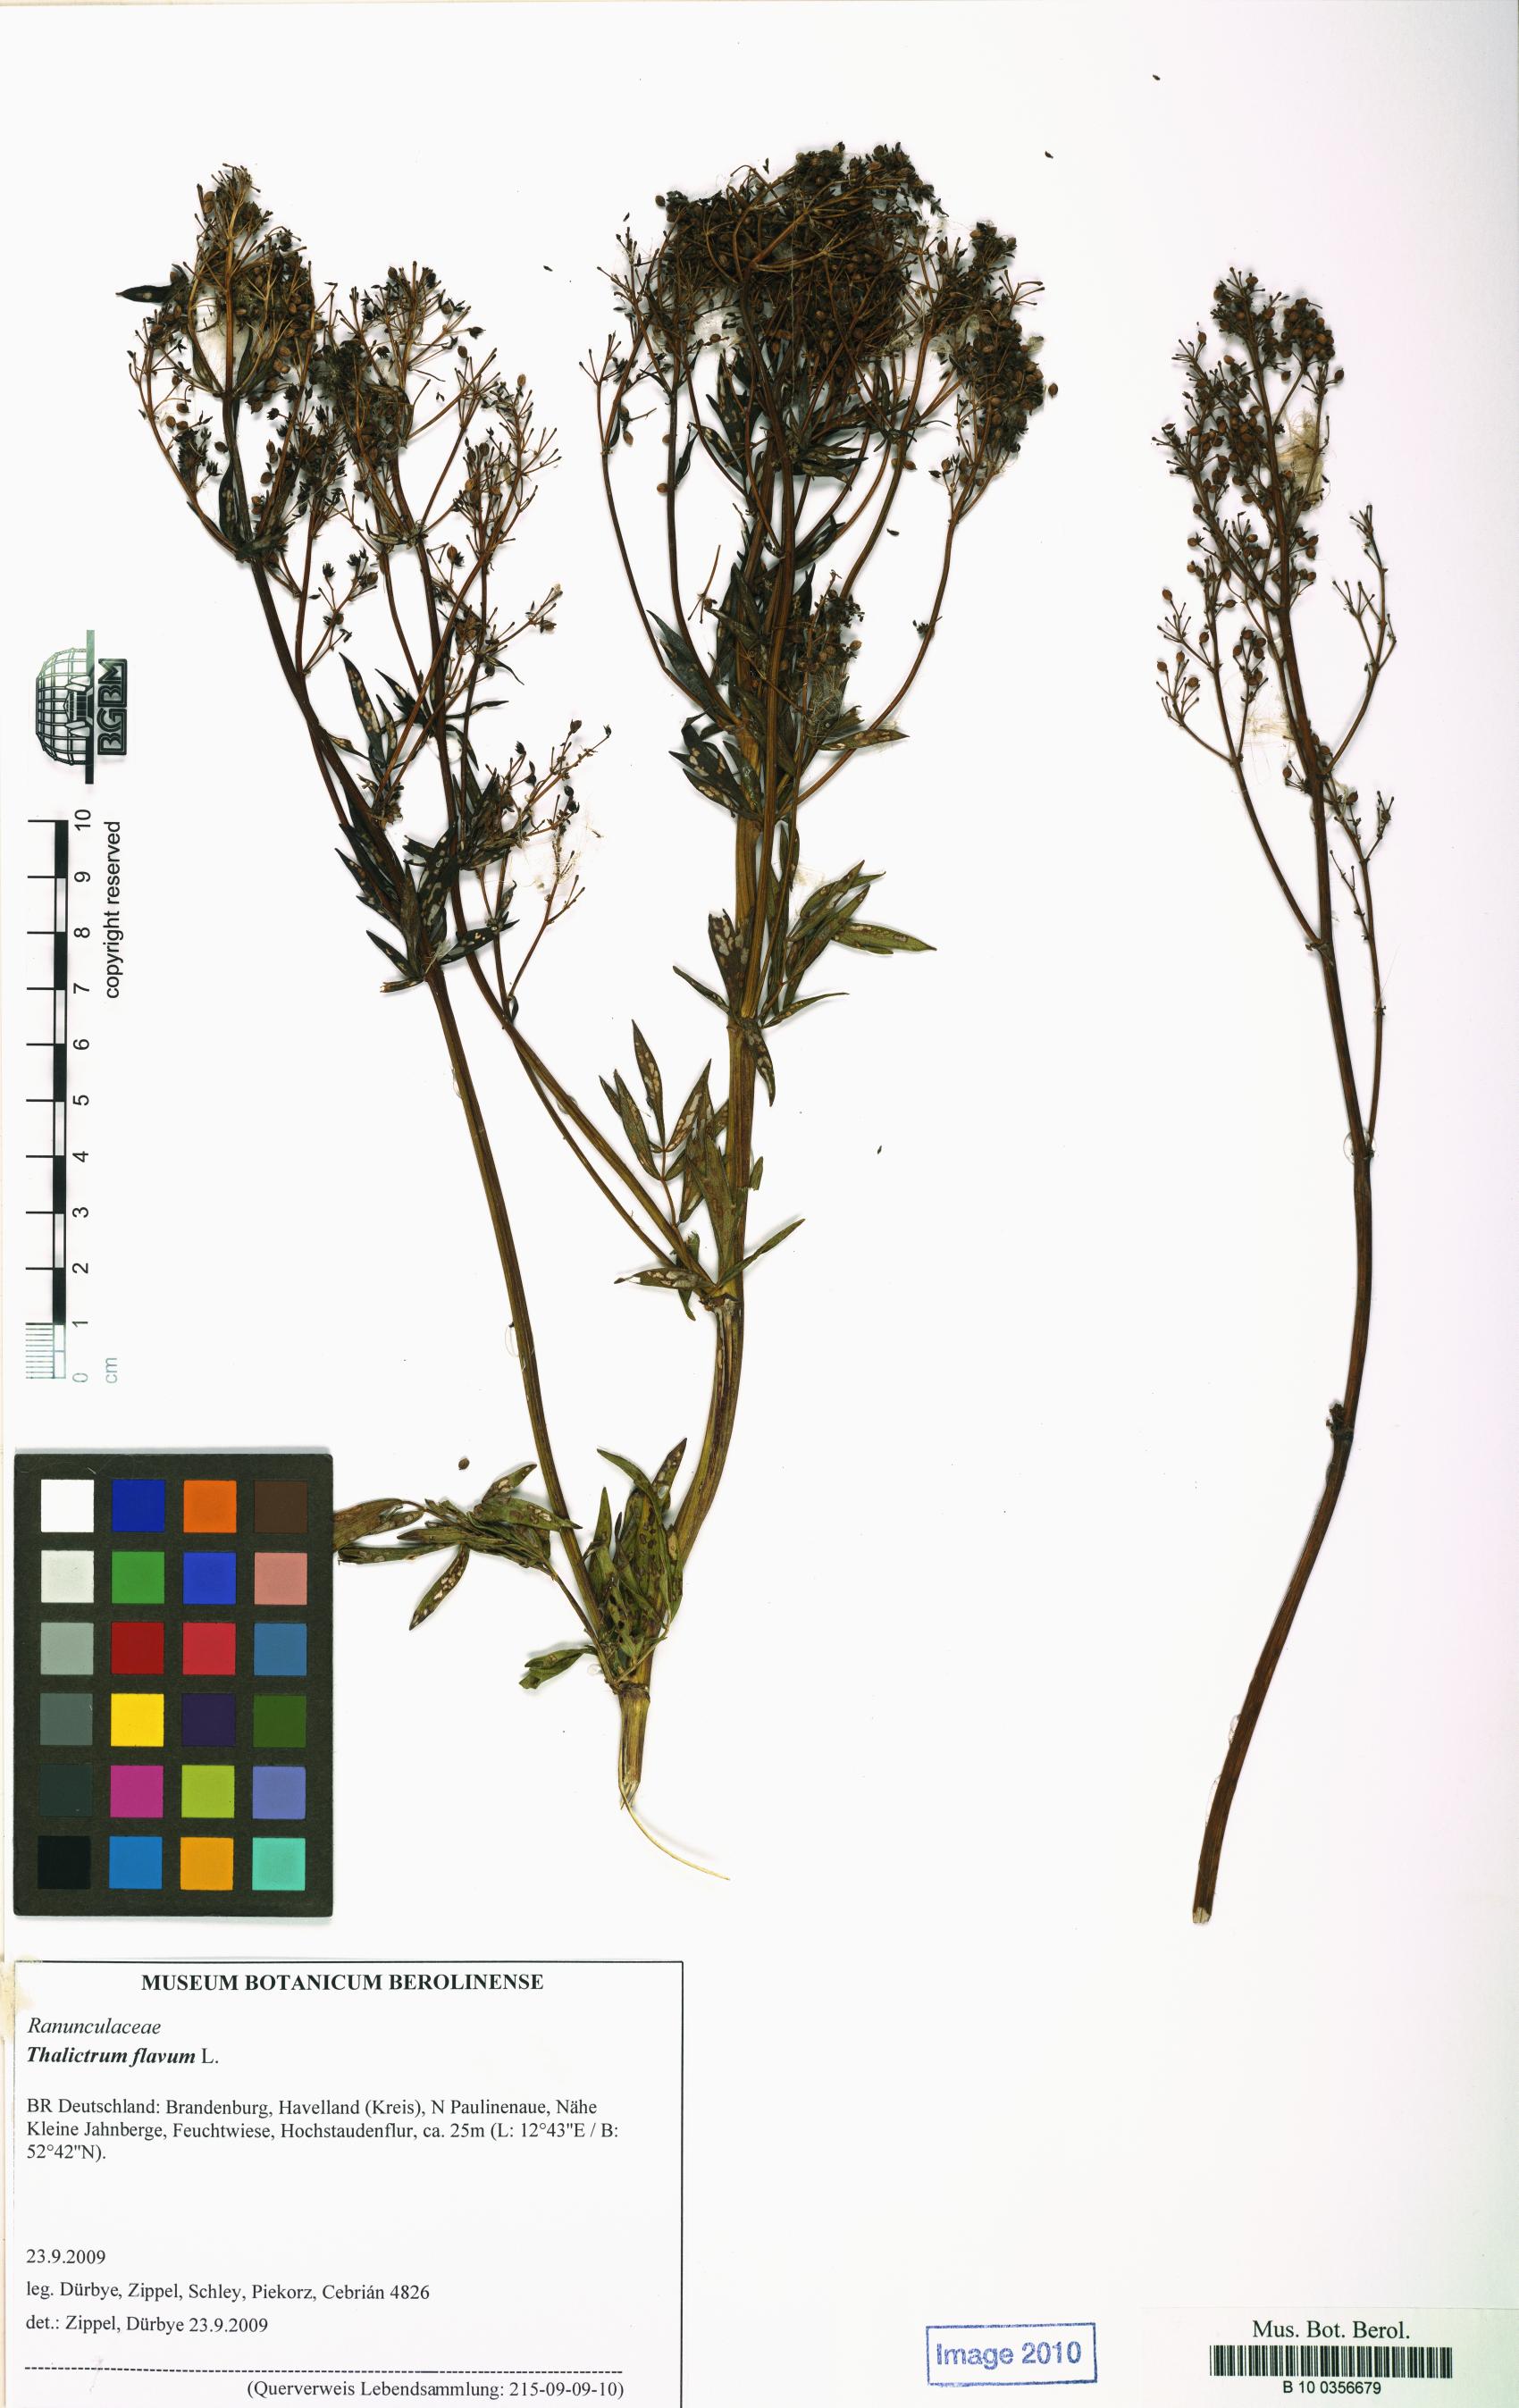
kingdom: Plantae
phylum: Tracheophyta
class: Magnoliopsida
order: Ranunculales
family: Ranunculaceae
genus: Thalictrum
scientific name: Thalictrum flavum
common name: Common meadow-rue
